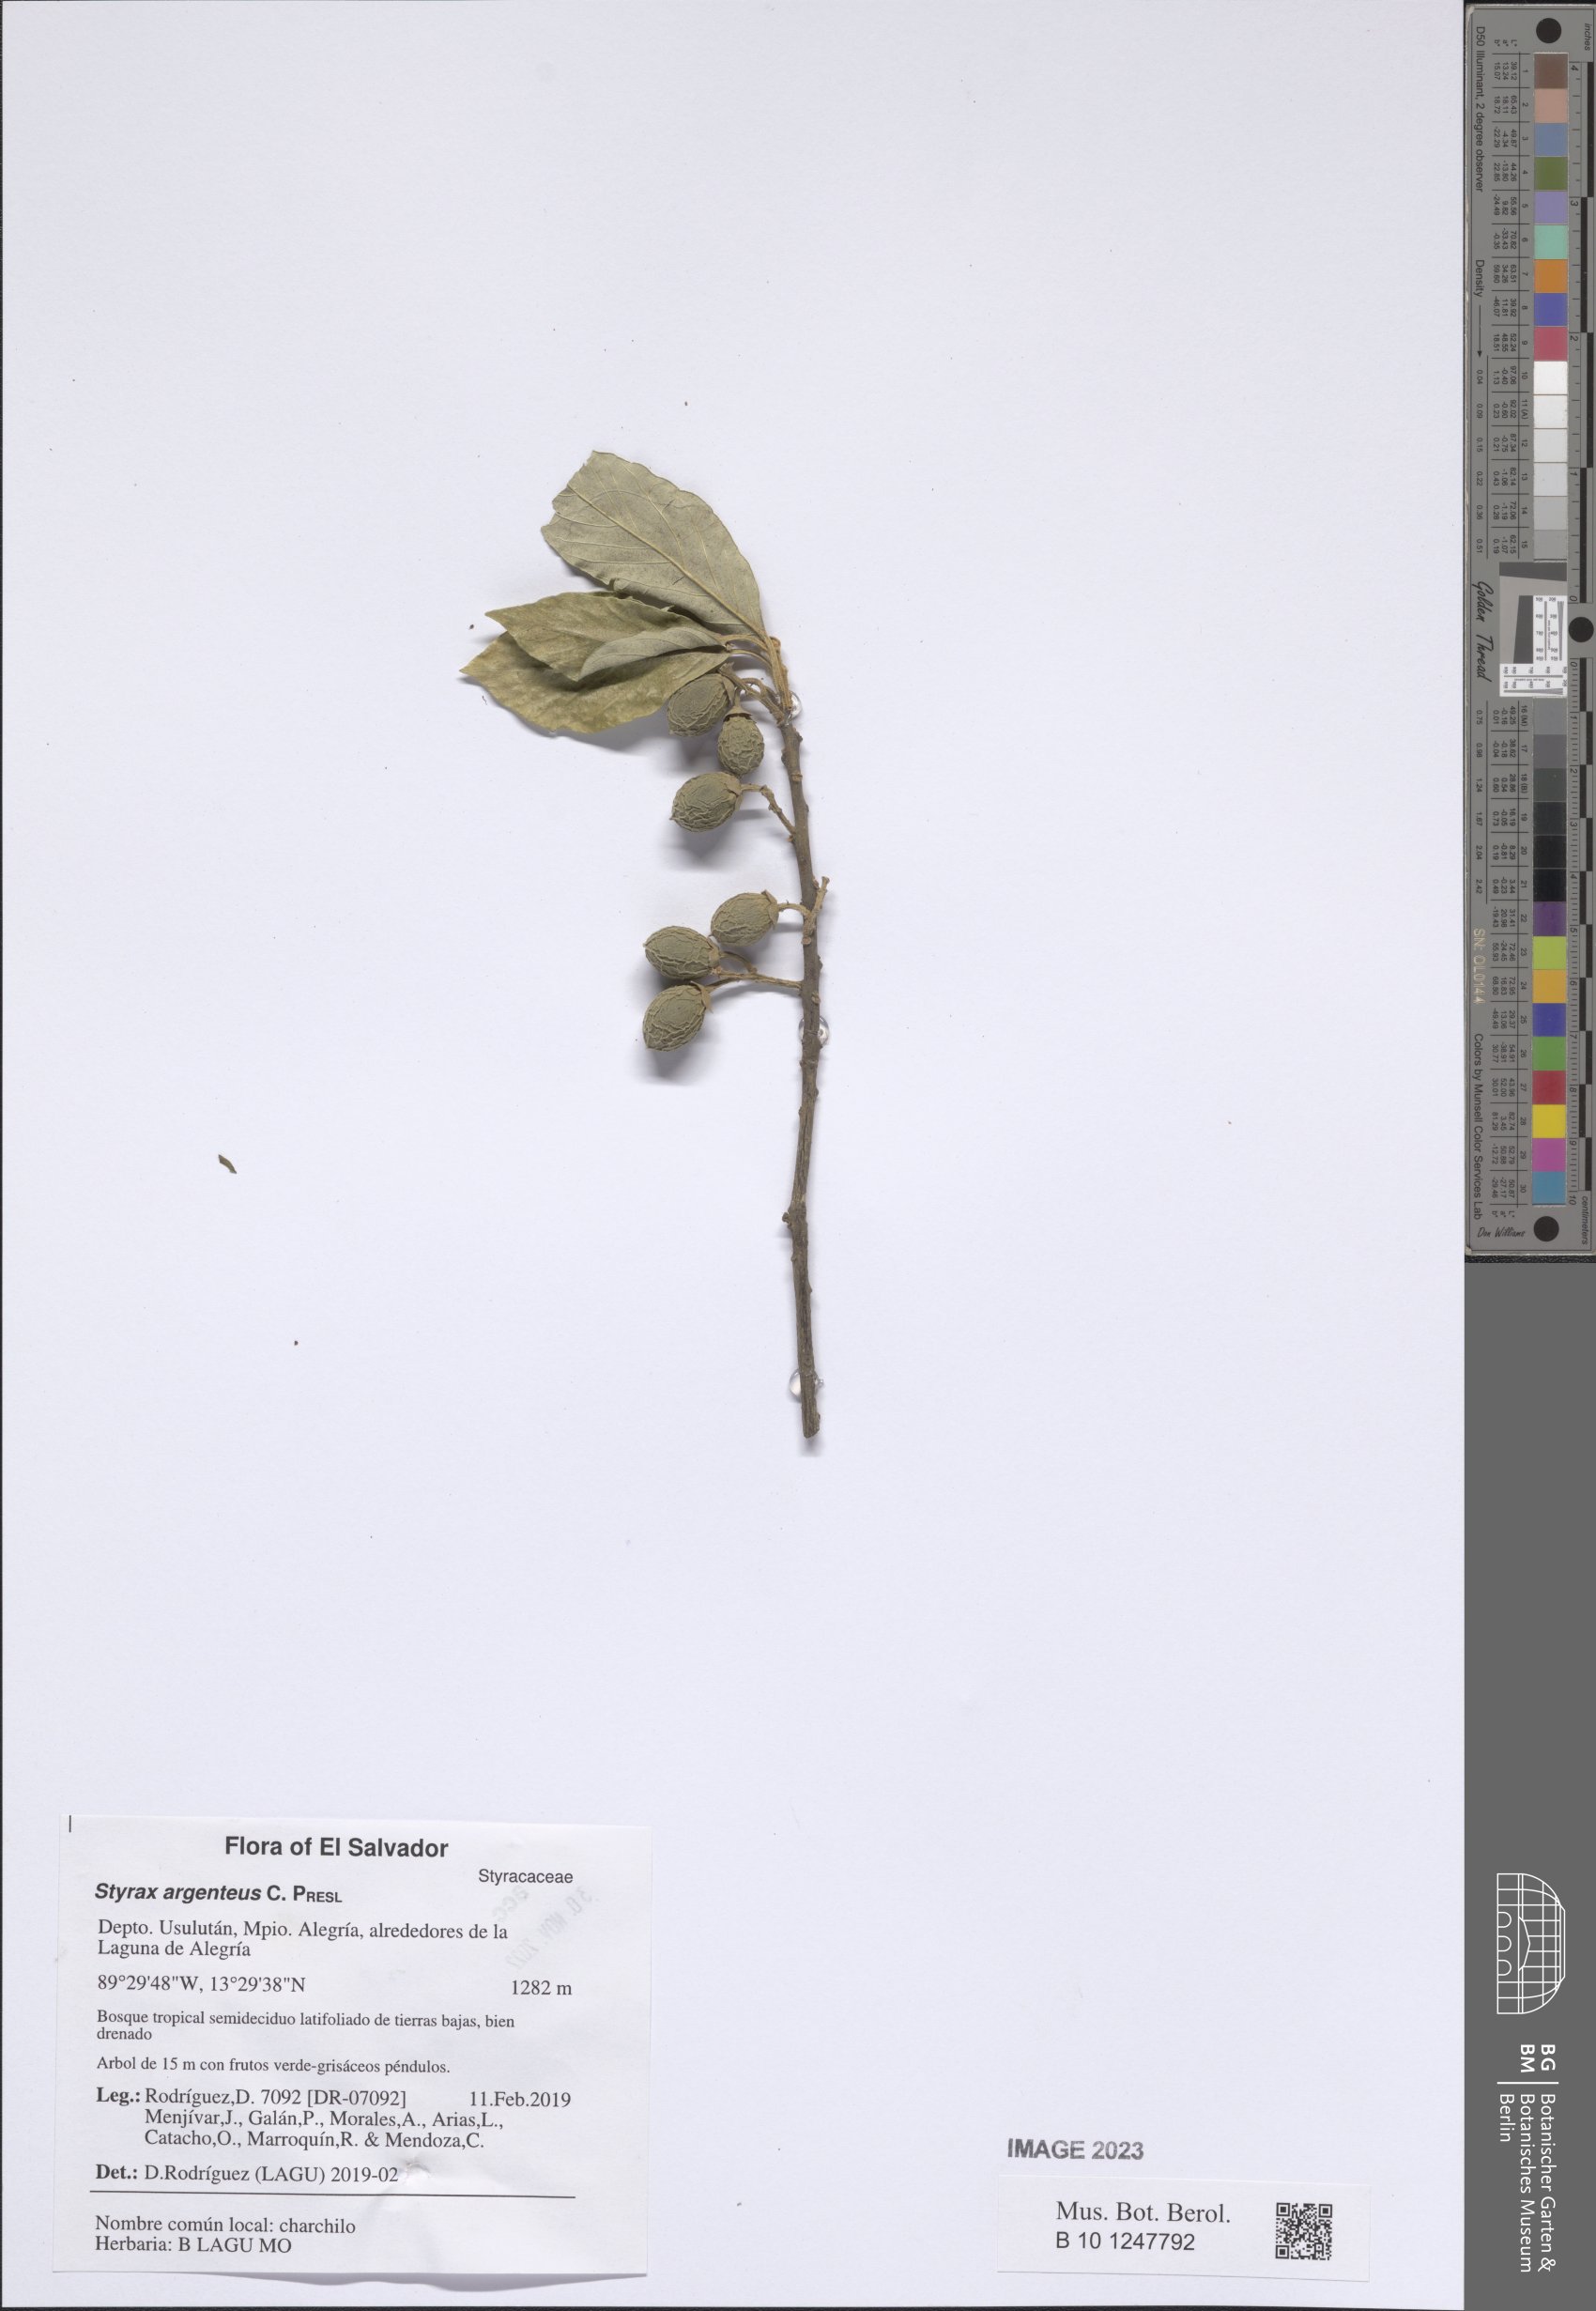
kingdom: Plantae
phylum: Tracheophyta
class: Magnoliopsida
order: Ericales
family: Styracaceae
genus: Styrax
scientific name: Styrax argenteus
